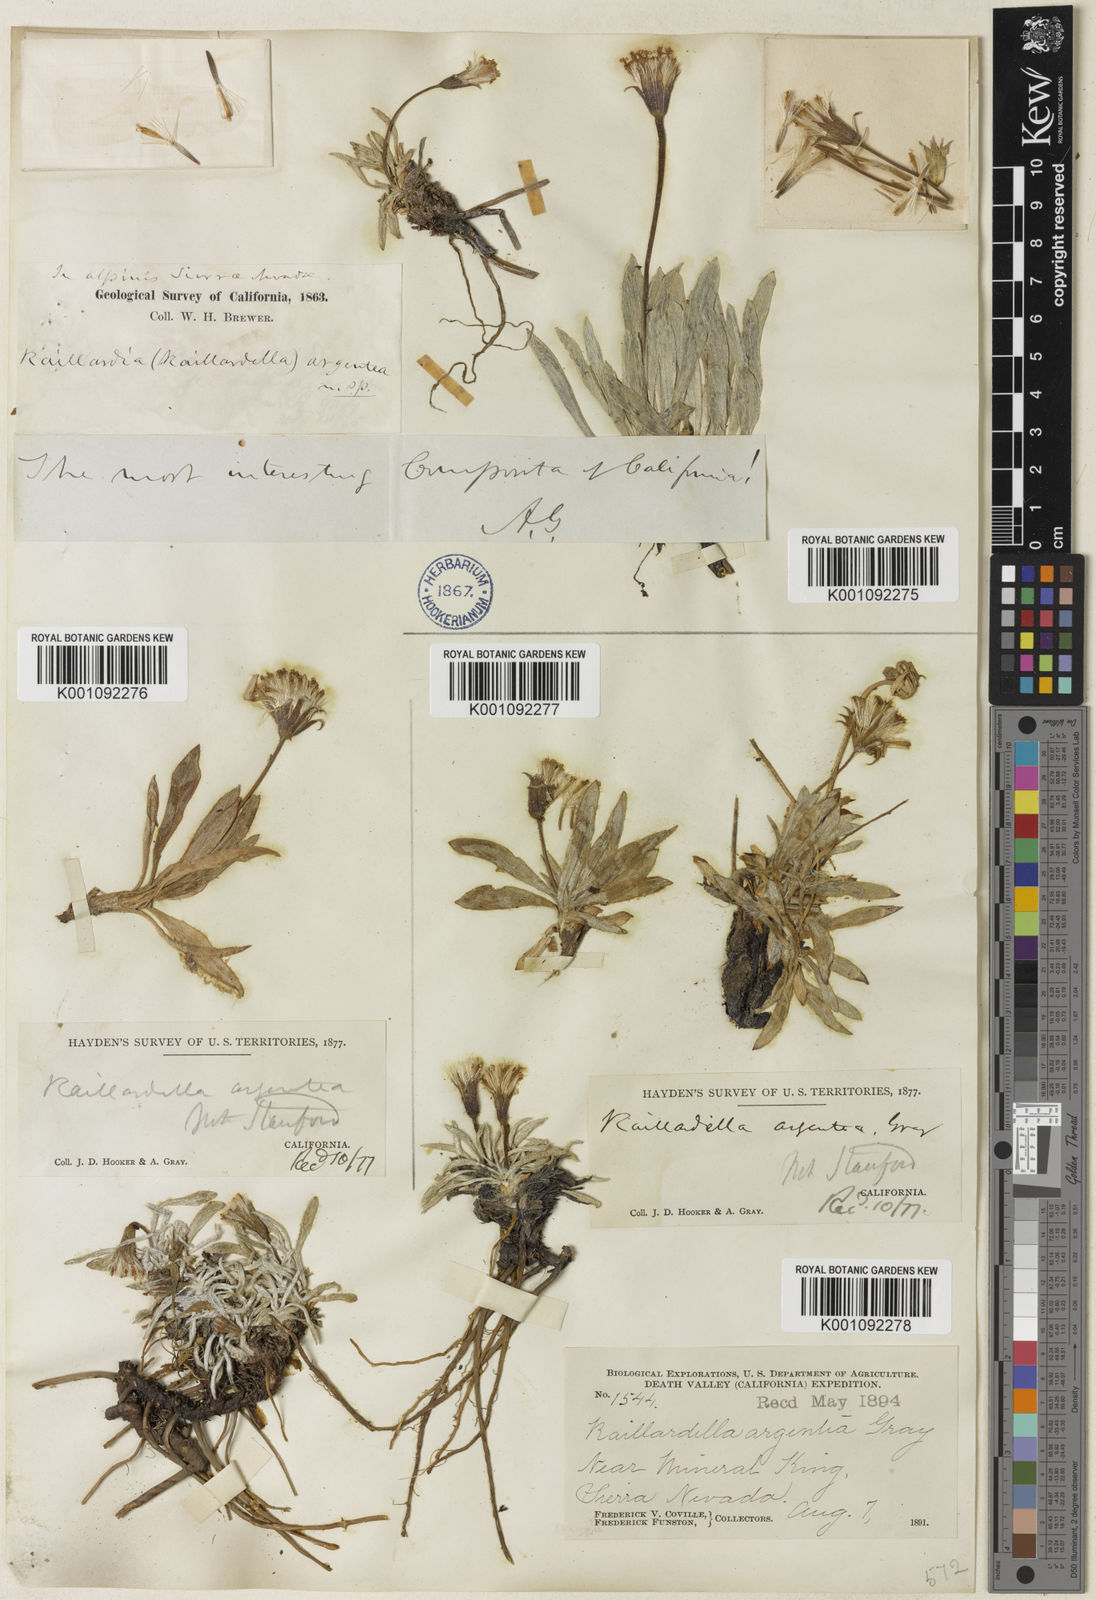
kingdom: Plantae
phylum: Tracheophyta
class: Magnoliopsida
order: Asterales
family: Asteraceae
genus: Raillardella
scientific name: Raillardella argentea
